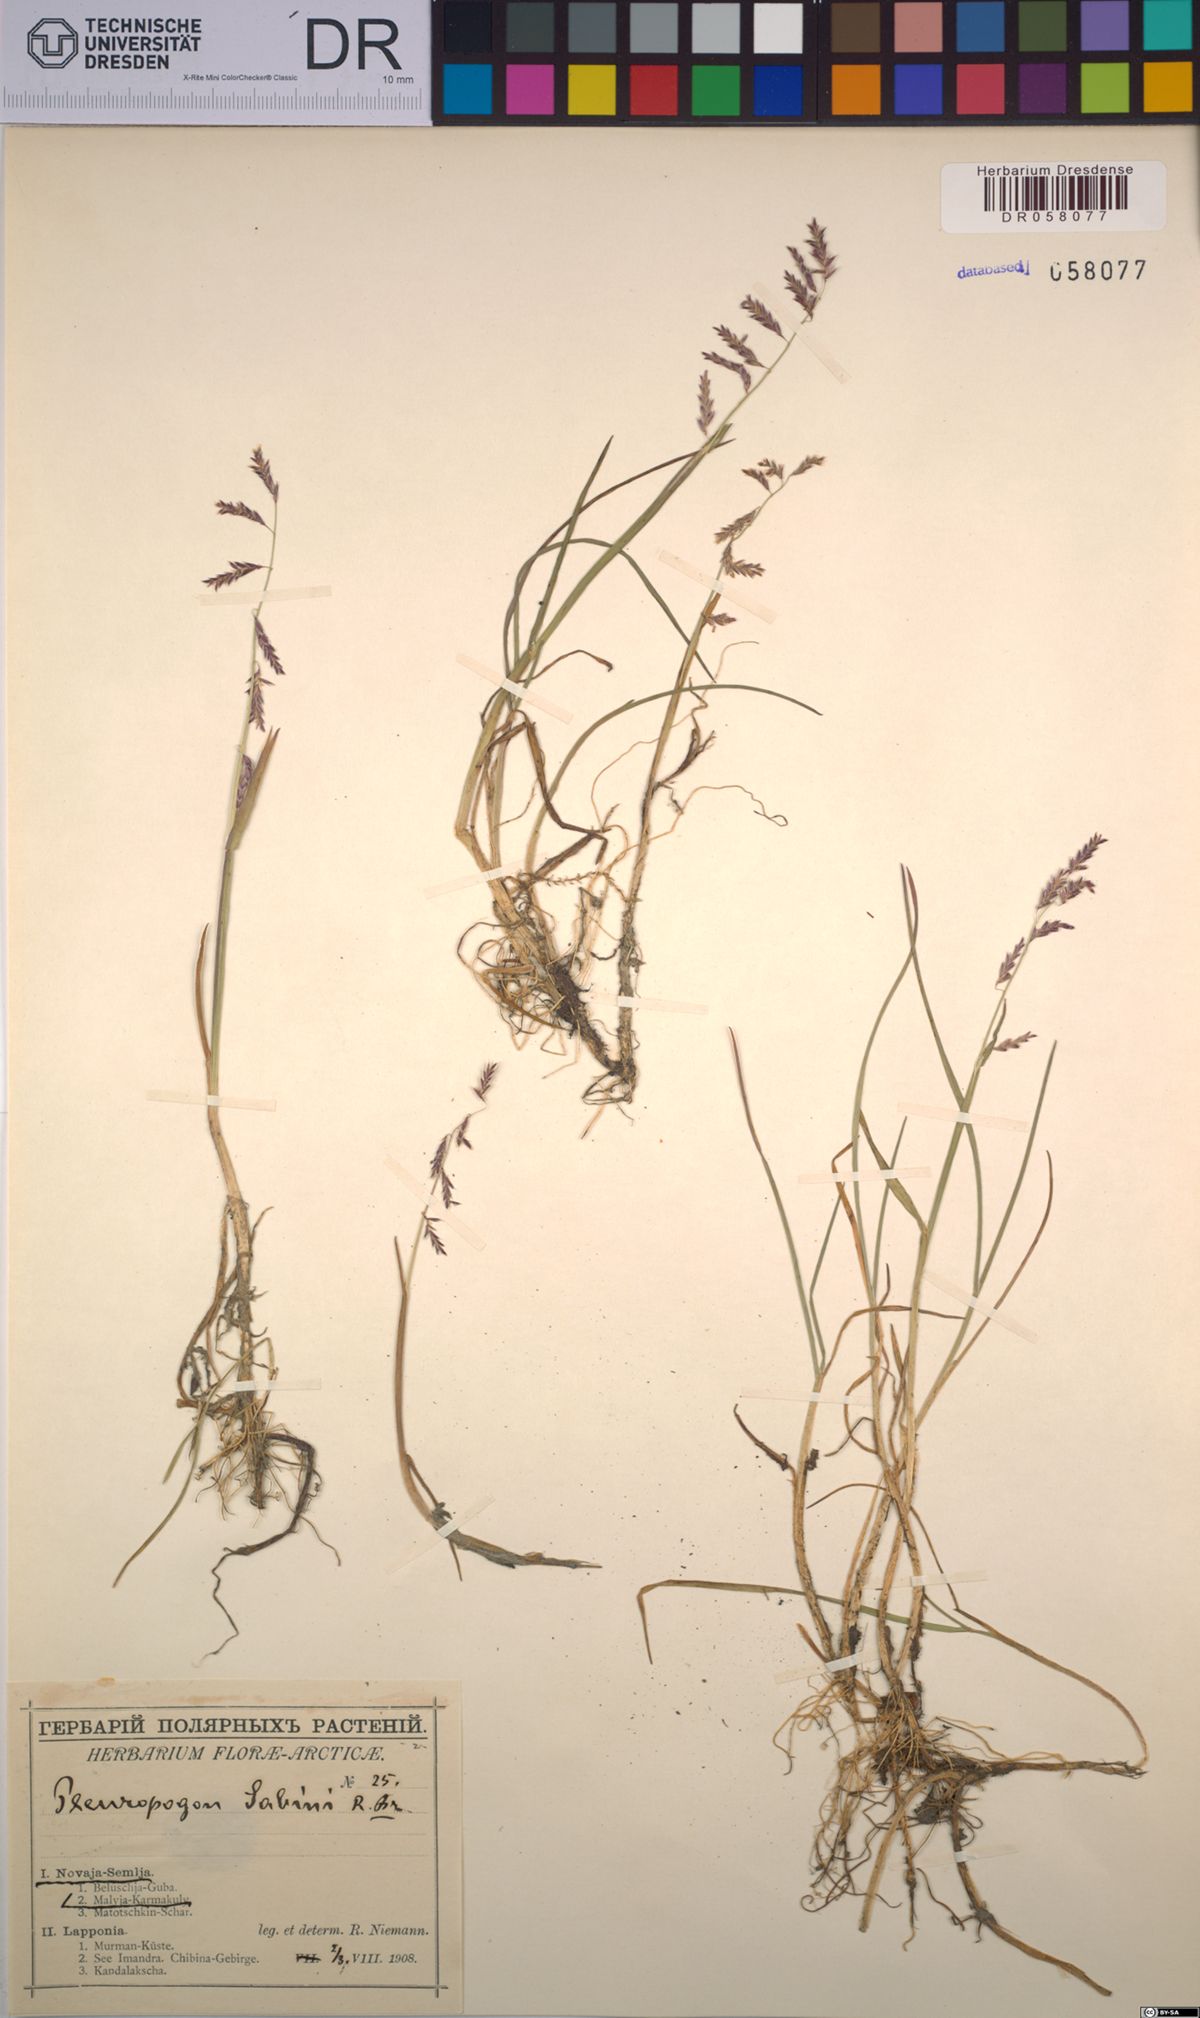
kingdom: Plantae
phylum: Tracheophyta
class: Liliopsida
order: Poales
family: Poaceae
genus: Pleuropogon
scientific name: Pleuropogon sabinei
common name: Sabine's false semaphoregrass
